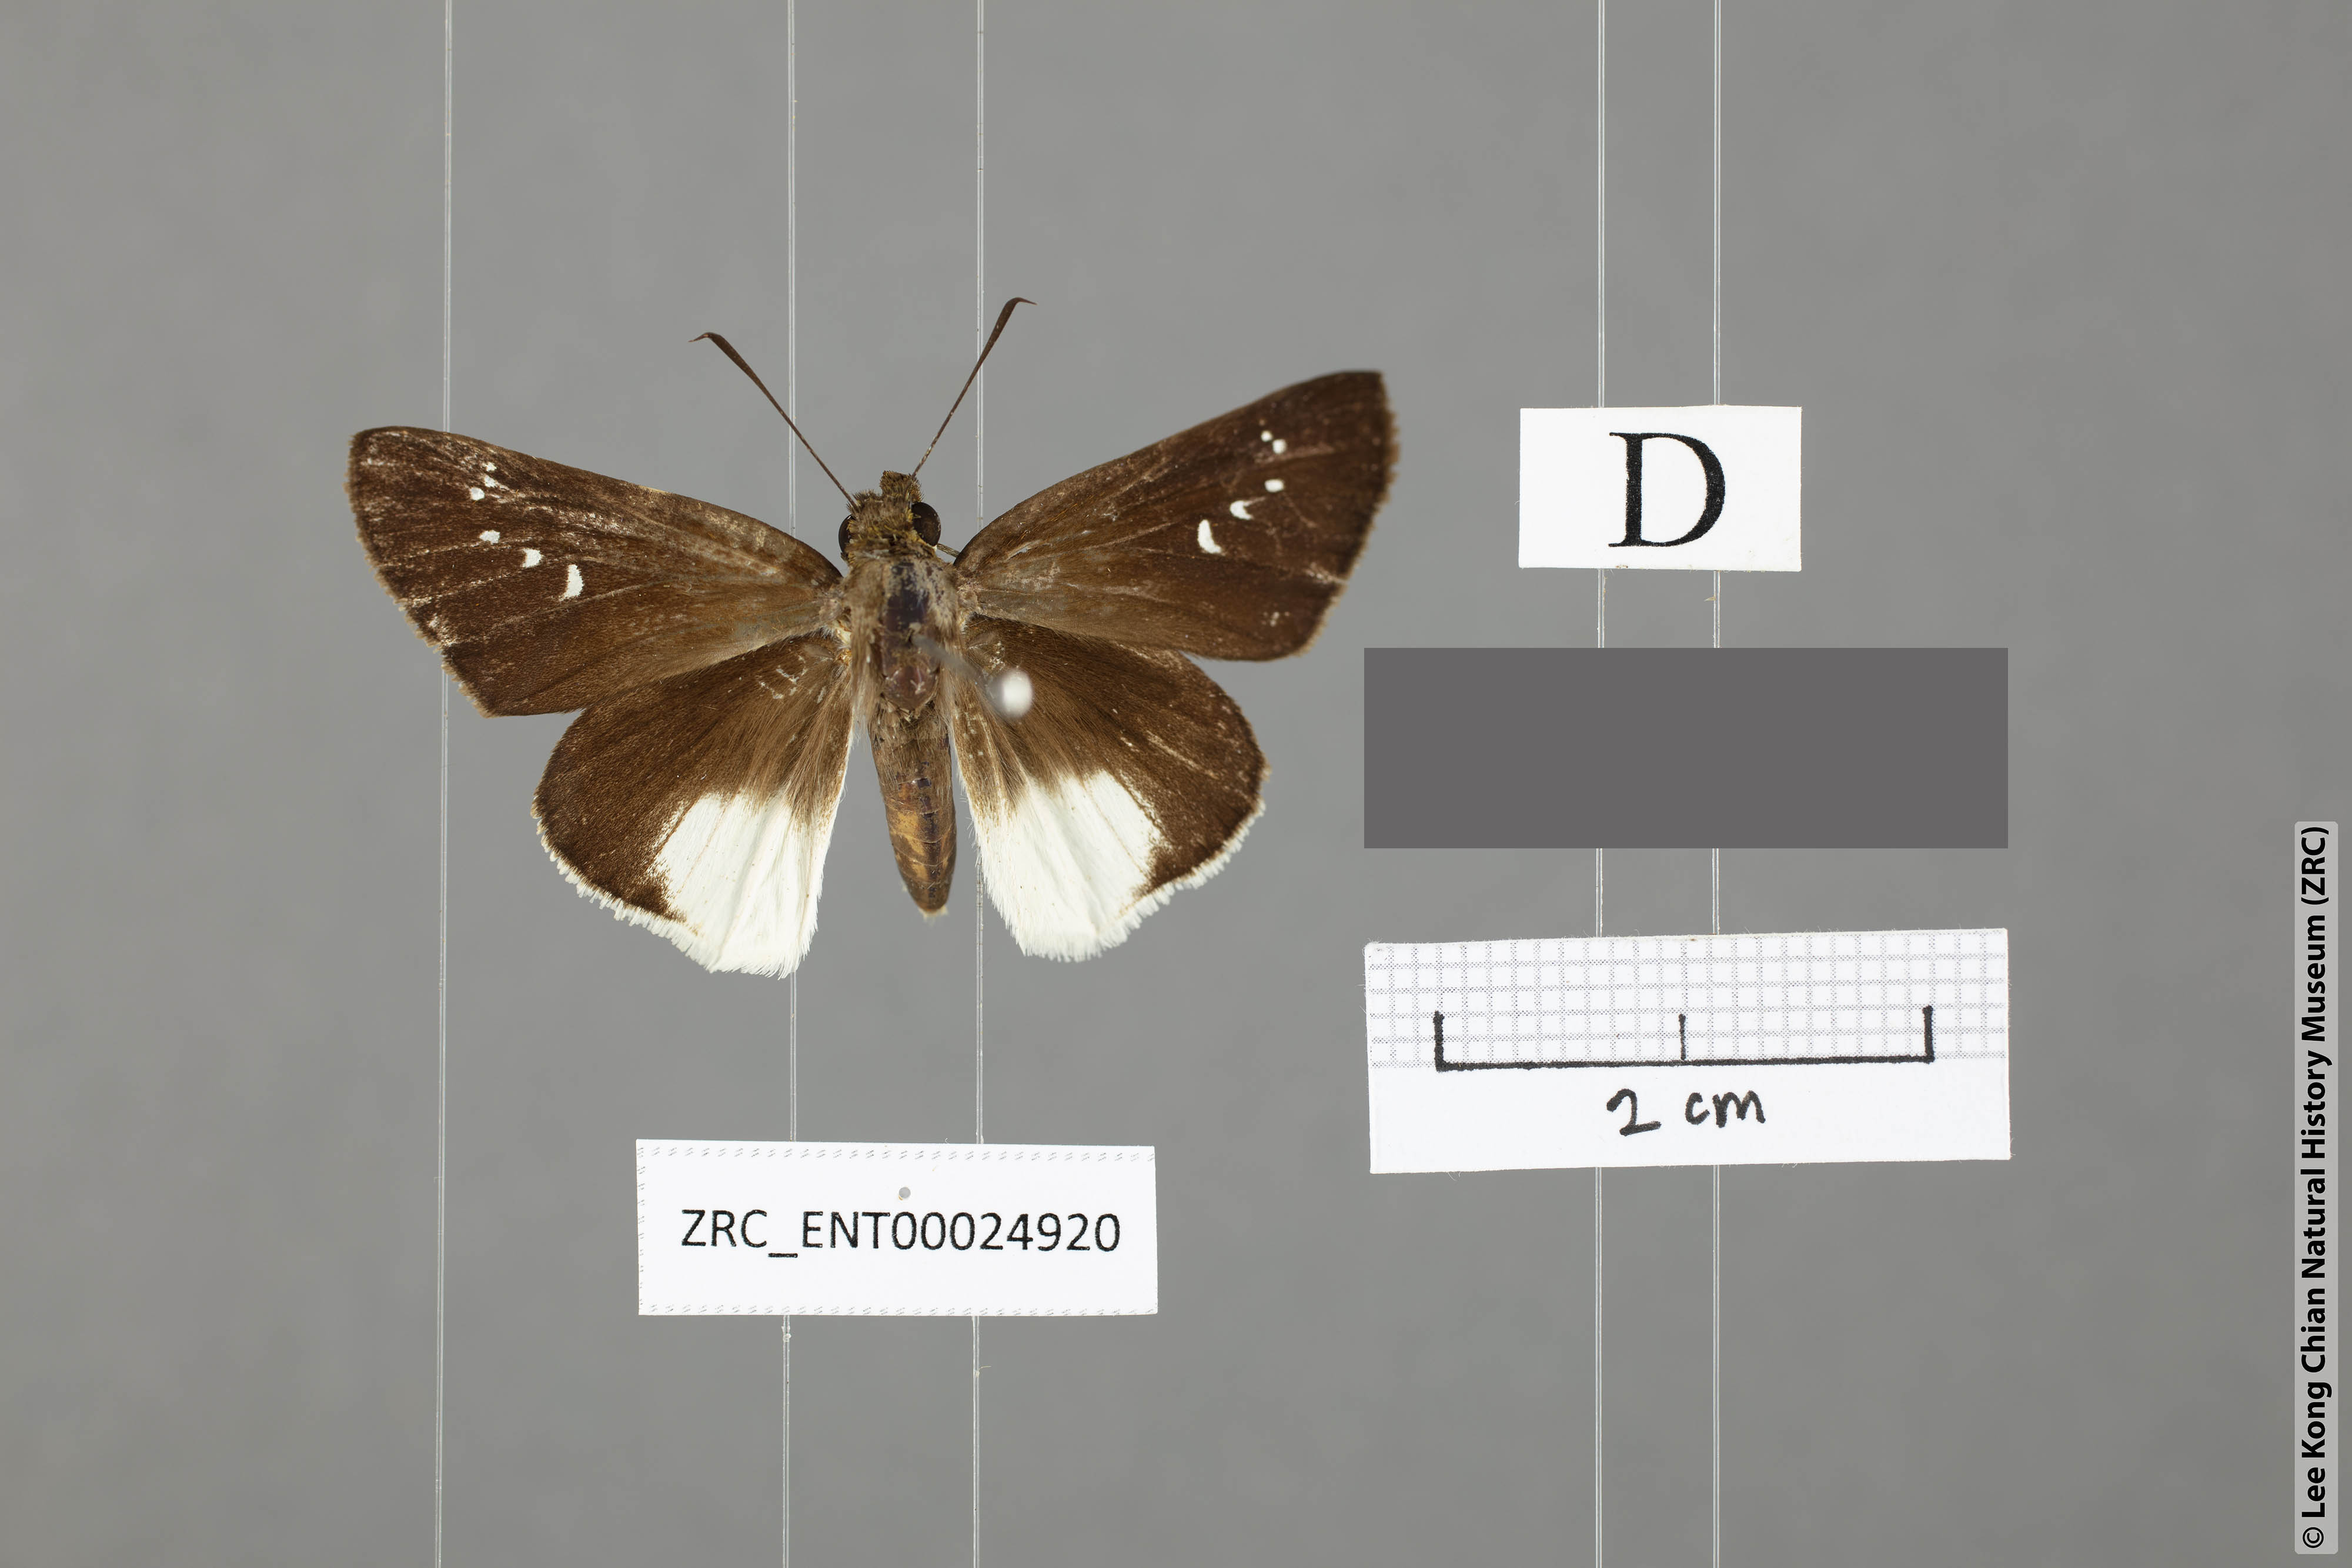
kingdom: Animalia
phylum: Arthropoda
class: Insecta
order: Lepidoptera
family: Hesperiidae
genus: Iton
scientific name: Iton semamora
